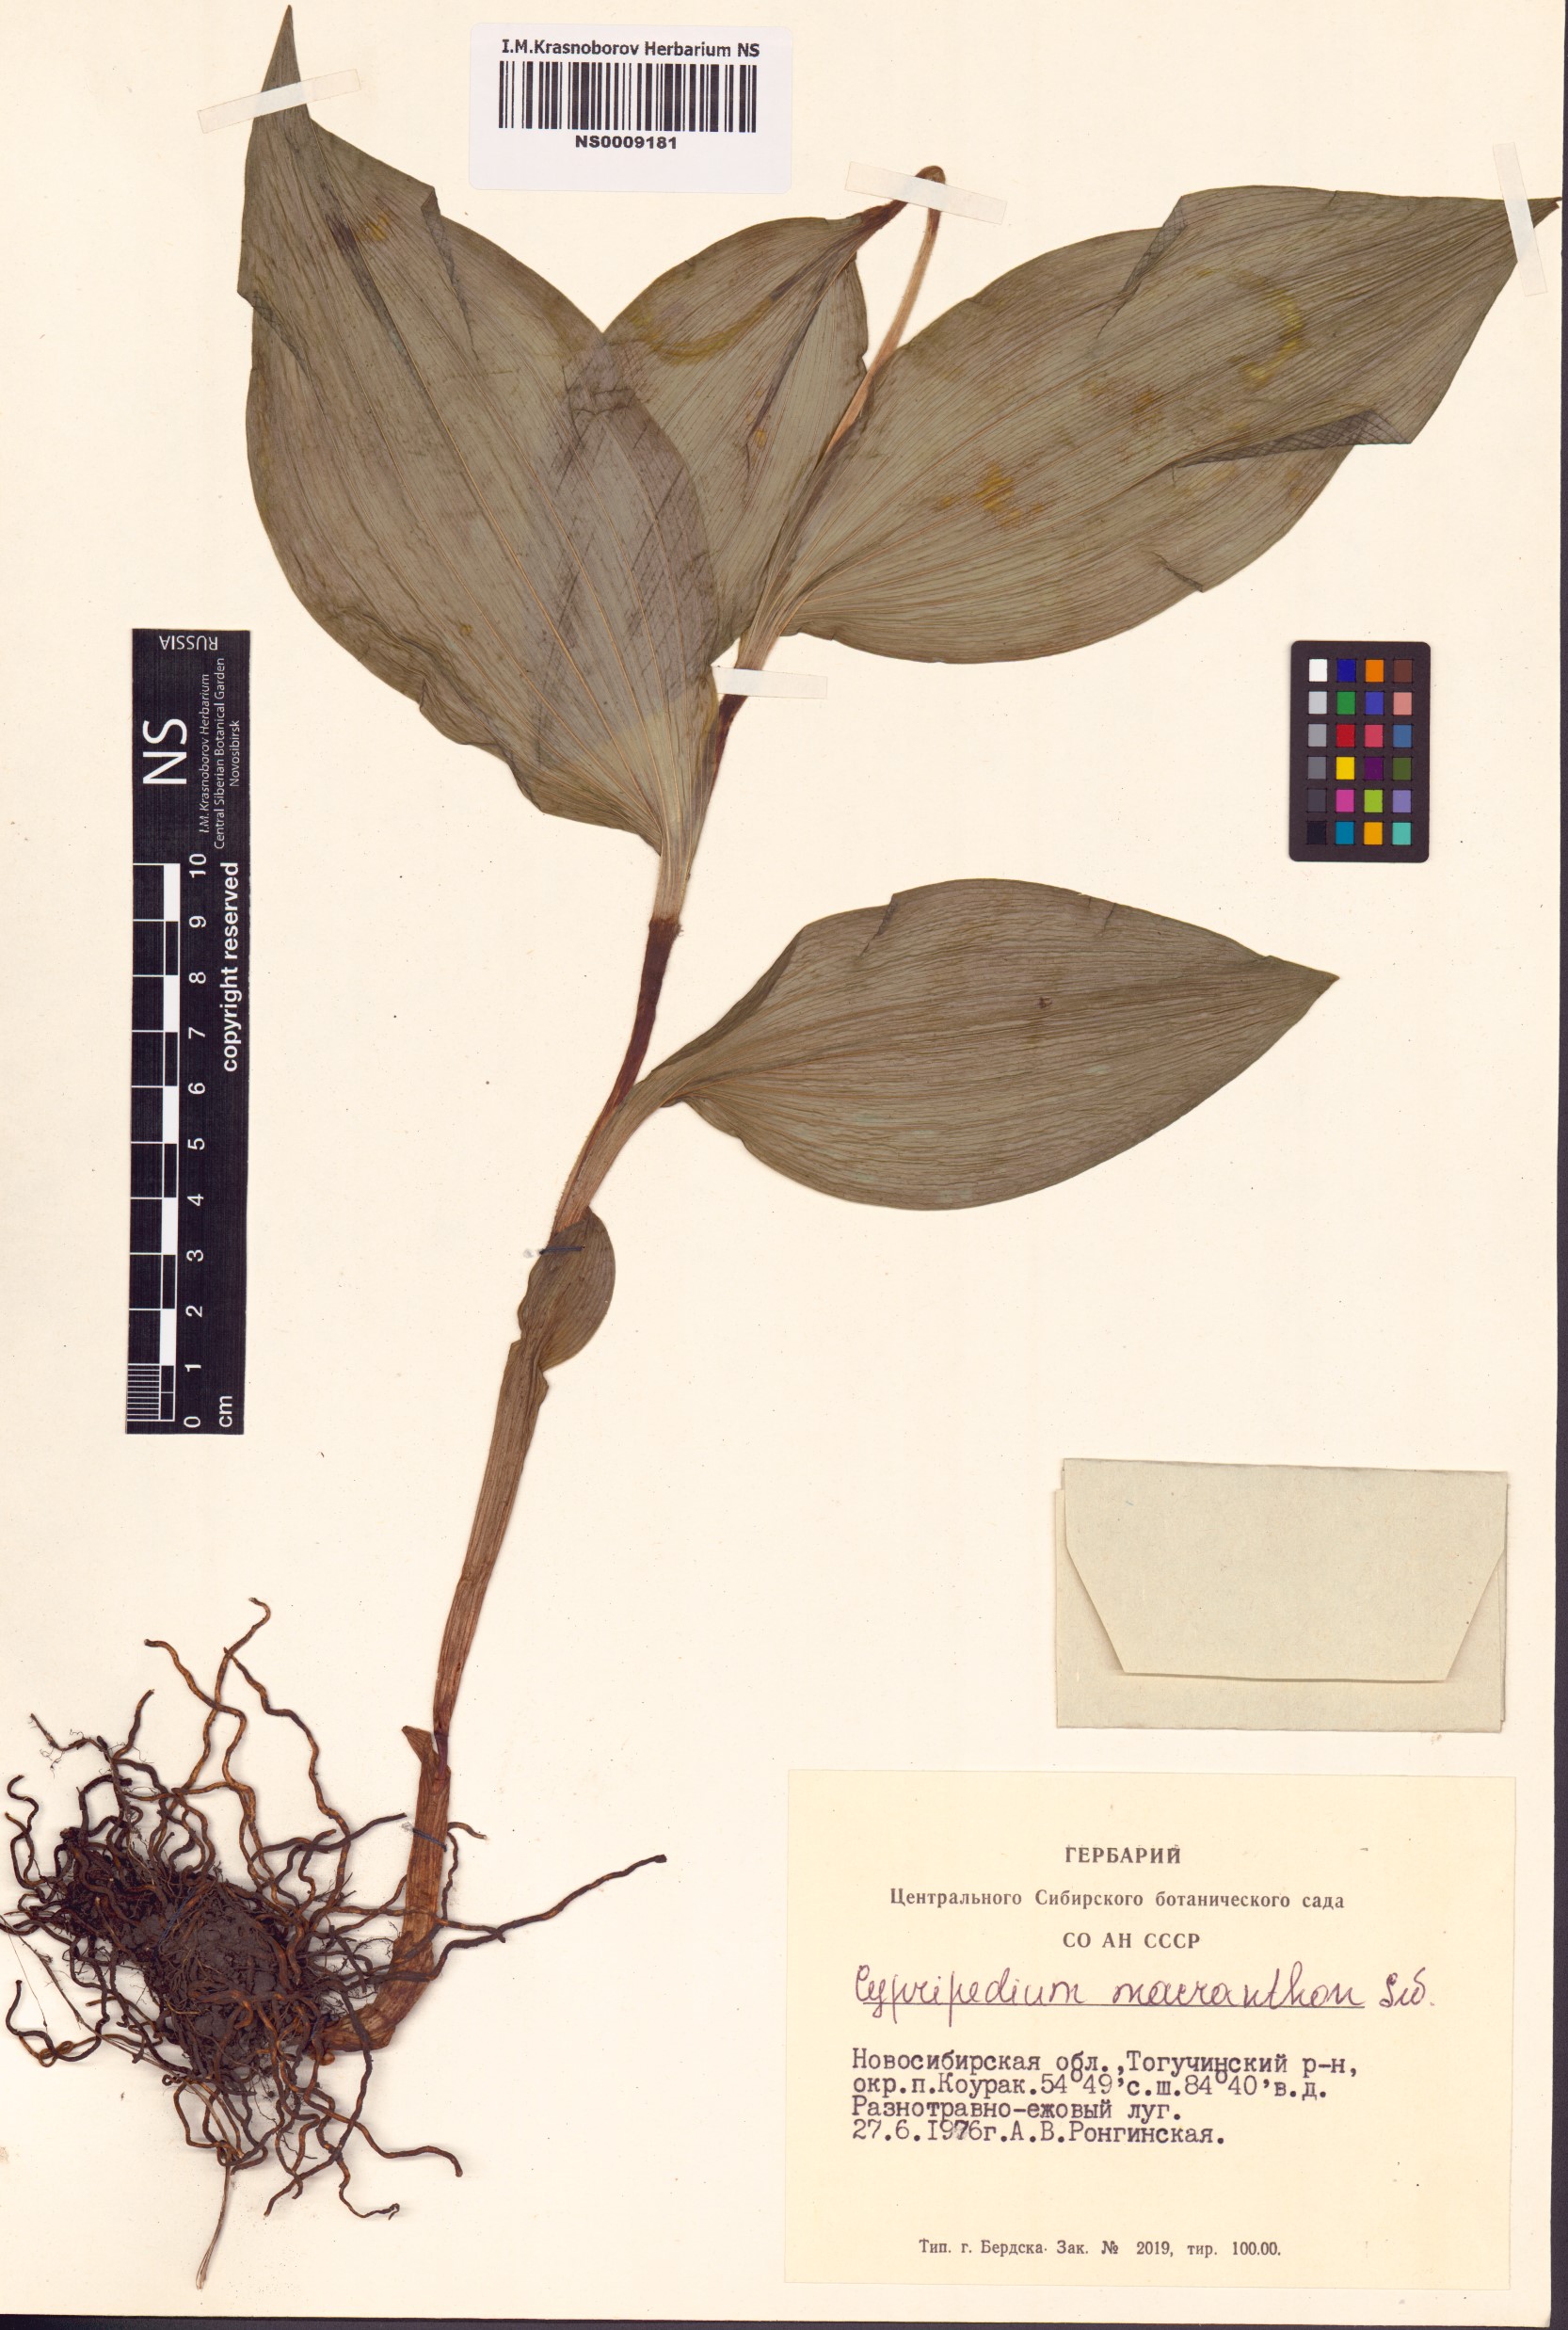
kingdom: Plantae
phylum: Tracheophyta
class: Liliopsida
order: Asparagales
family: Orchidaceae
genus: Cypripedium
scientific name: Cypripedium macranthos
